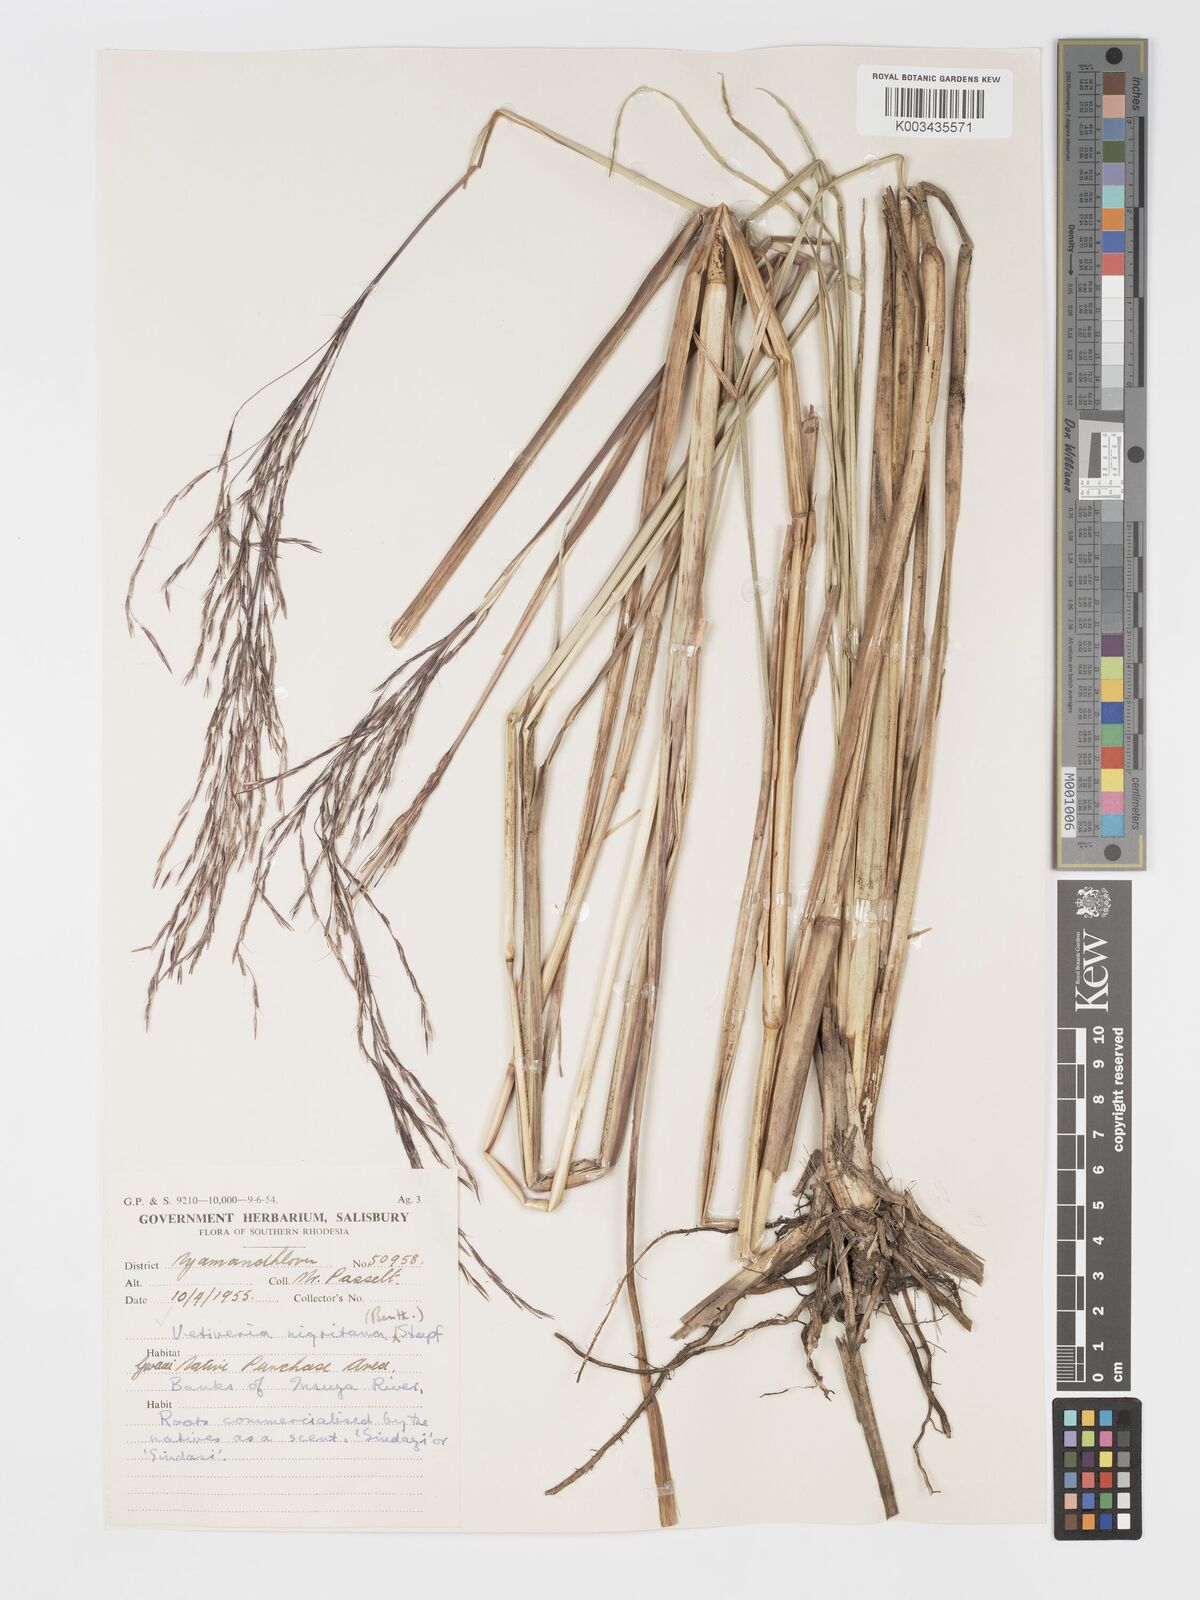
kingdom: Plantae
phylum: Tracheophyta
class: Liliopsida
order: Poales
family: Poaceae
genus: Chrysopogon
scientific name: Chrysopogon nigritanus
